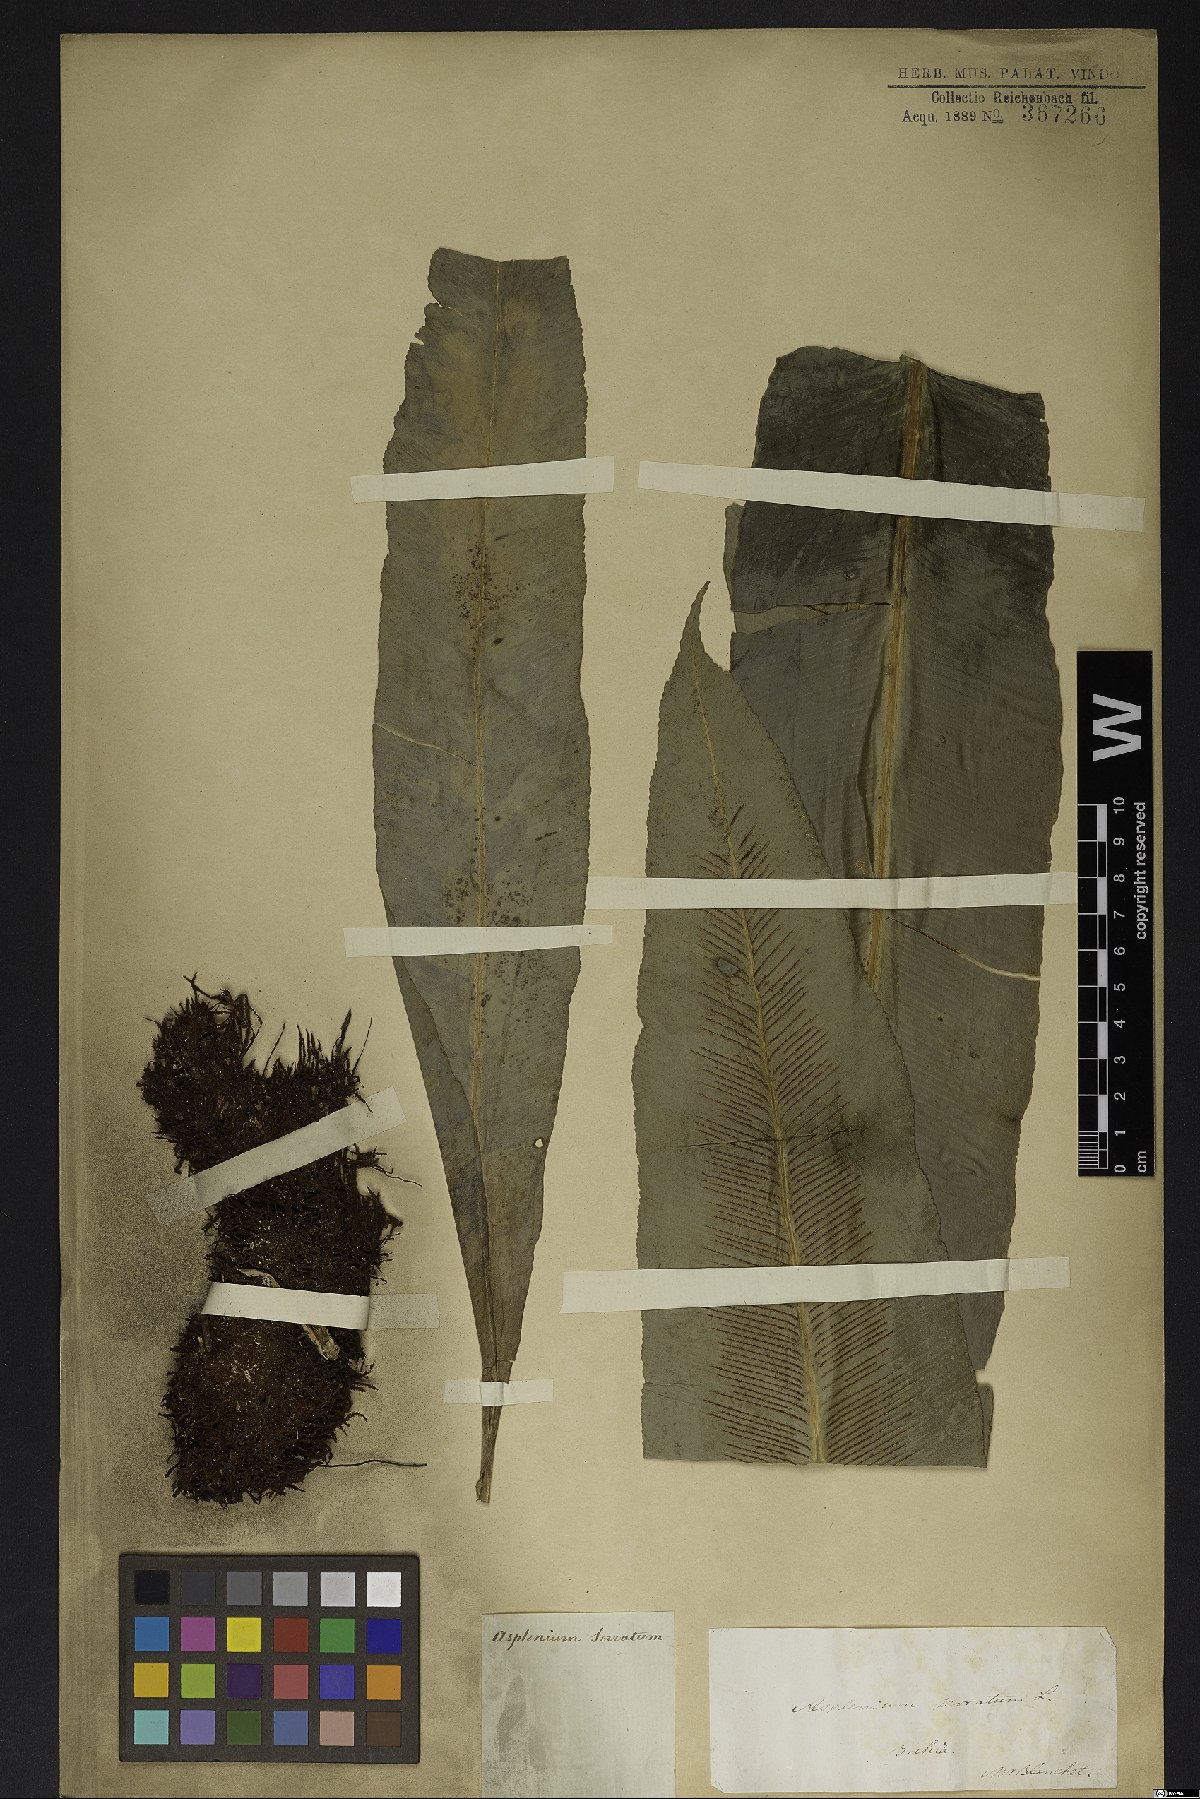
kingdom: Plantae
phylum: Tracheophyta
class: Polypodiopsida
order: Polypodiales
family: Aspleniaceae
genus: Asplenium
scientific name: Asplenium serratum
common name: Wild birdnest fern
